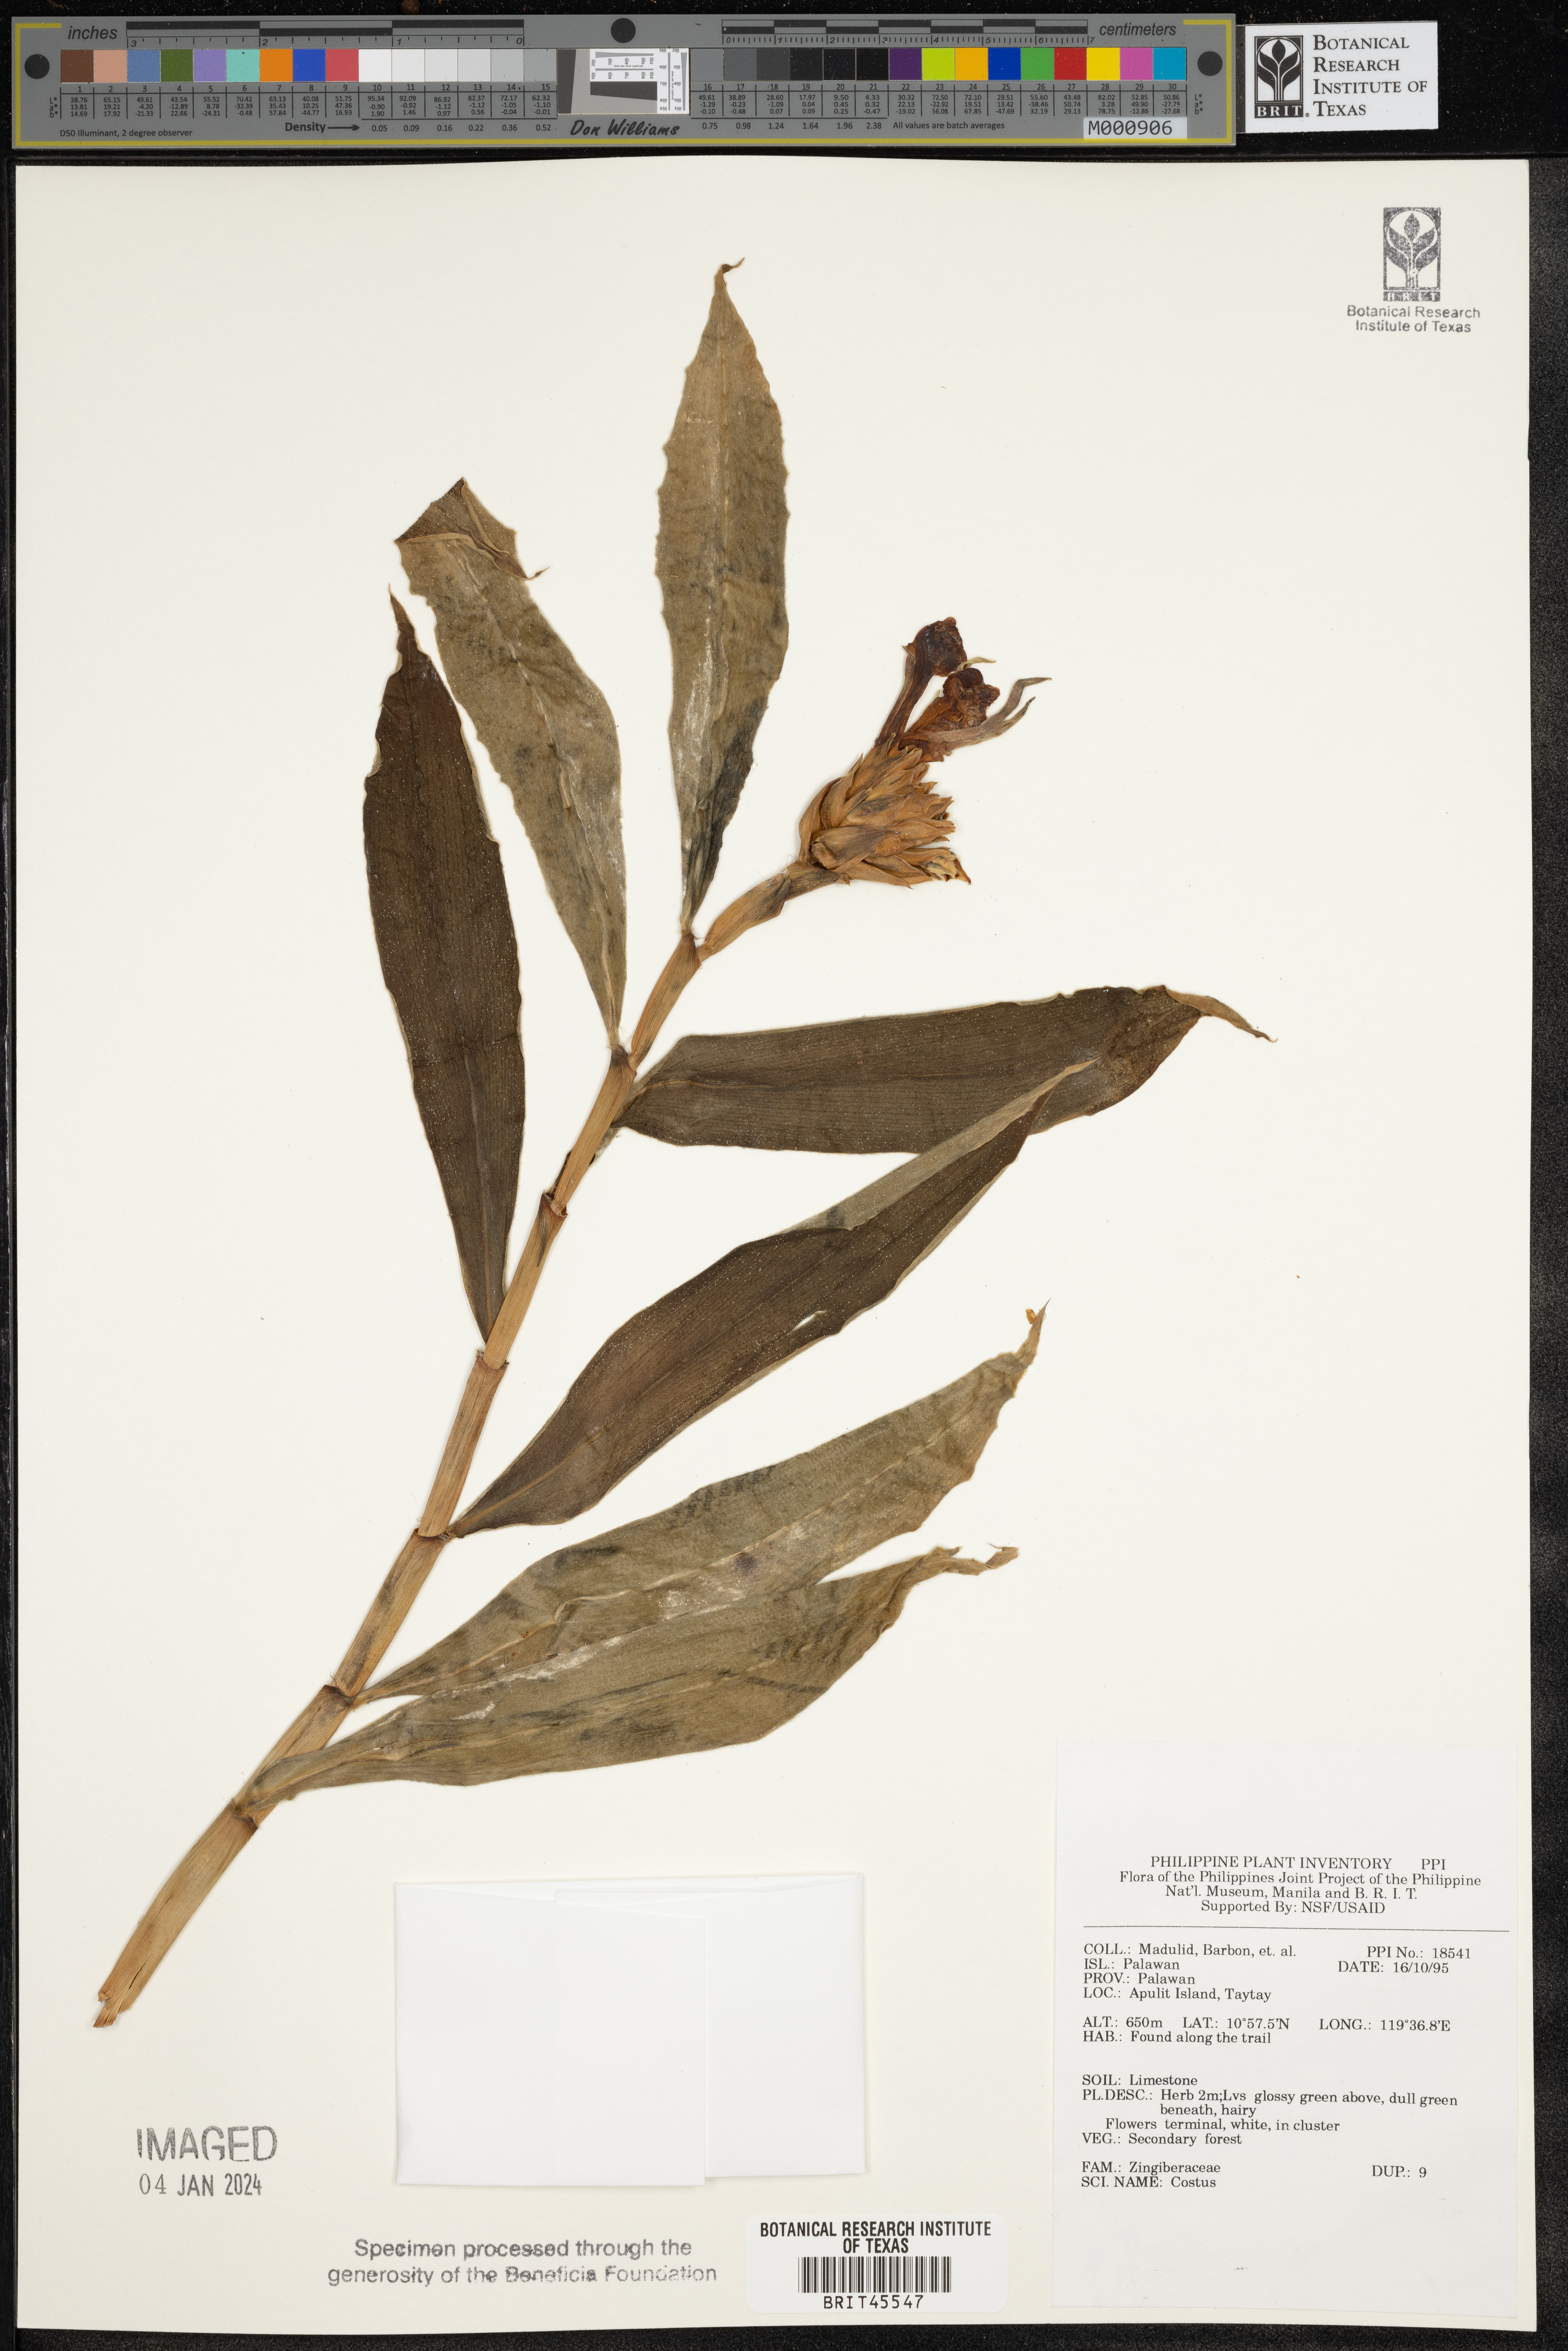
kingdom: Plantae
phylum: Tracheophyta
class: Liliopsida
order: Zingiberales
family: Costaceae
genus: Costus
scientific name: Costus
